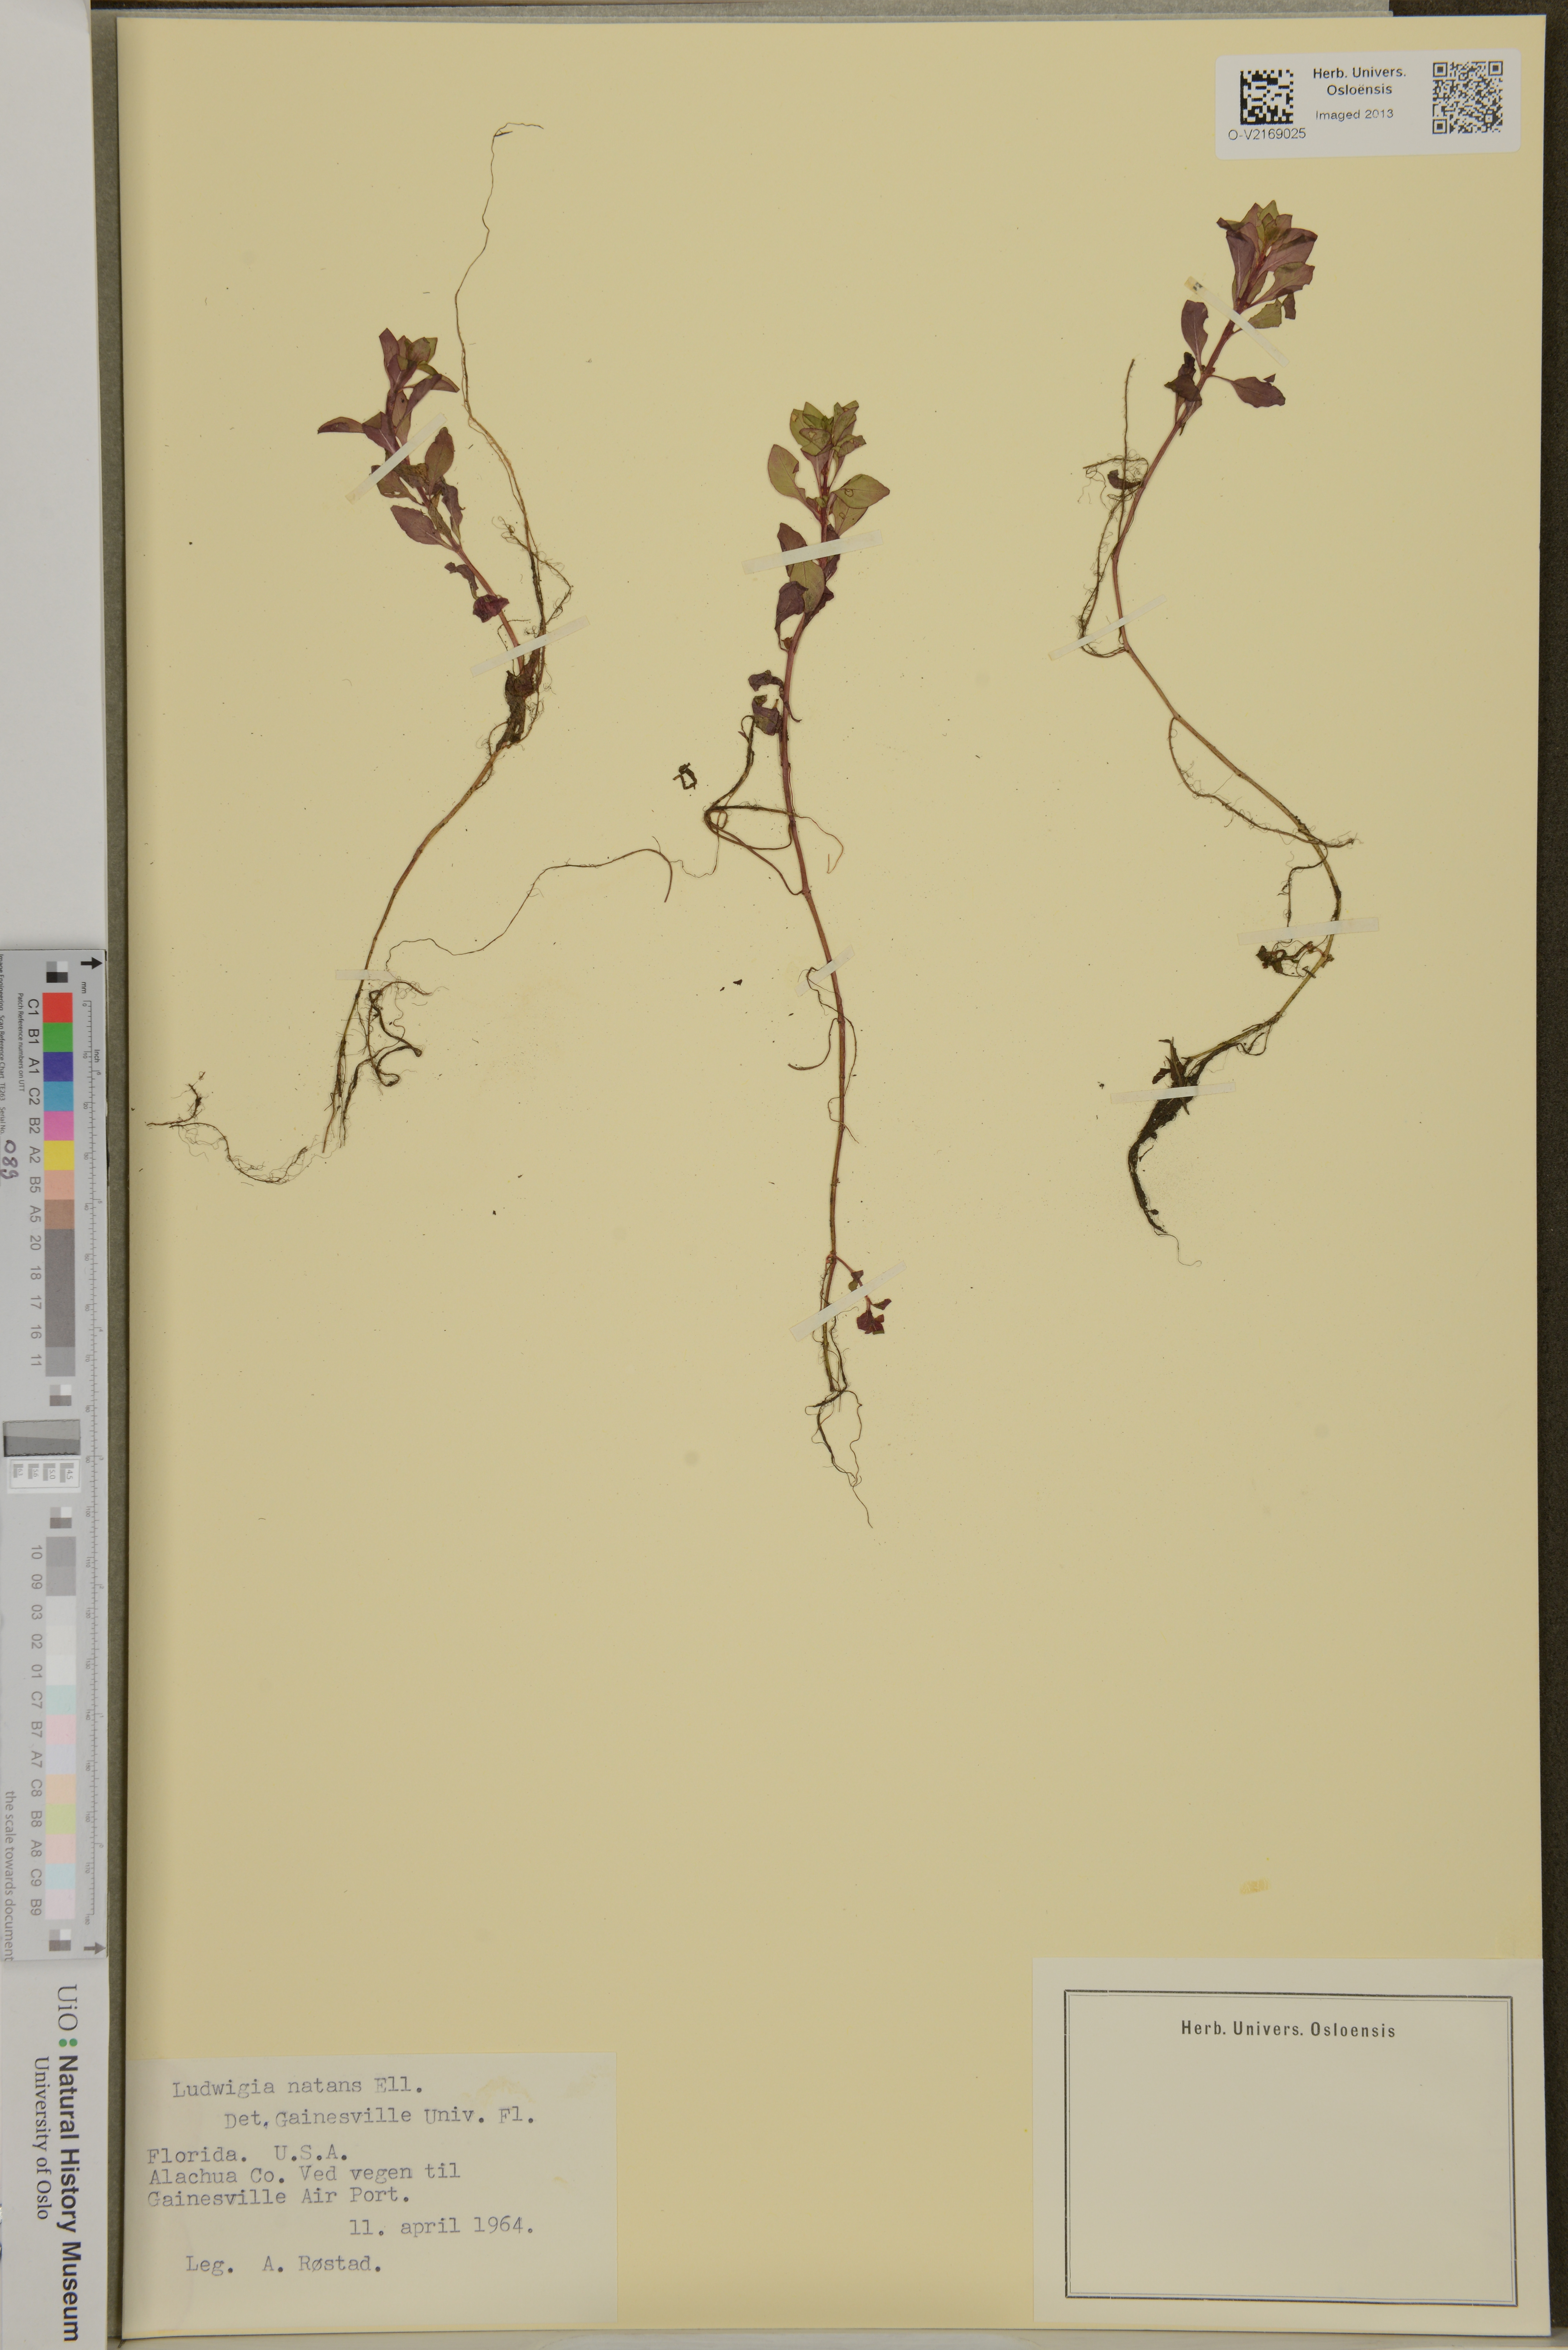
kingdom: Plantae
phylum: Tracheophyta
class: Magnoliopsida
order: Myrtales
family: Onagraceae
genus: Ludwigia
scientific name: Ludwigia repens
